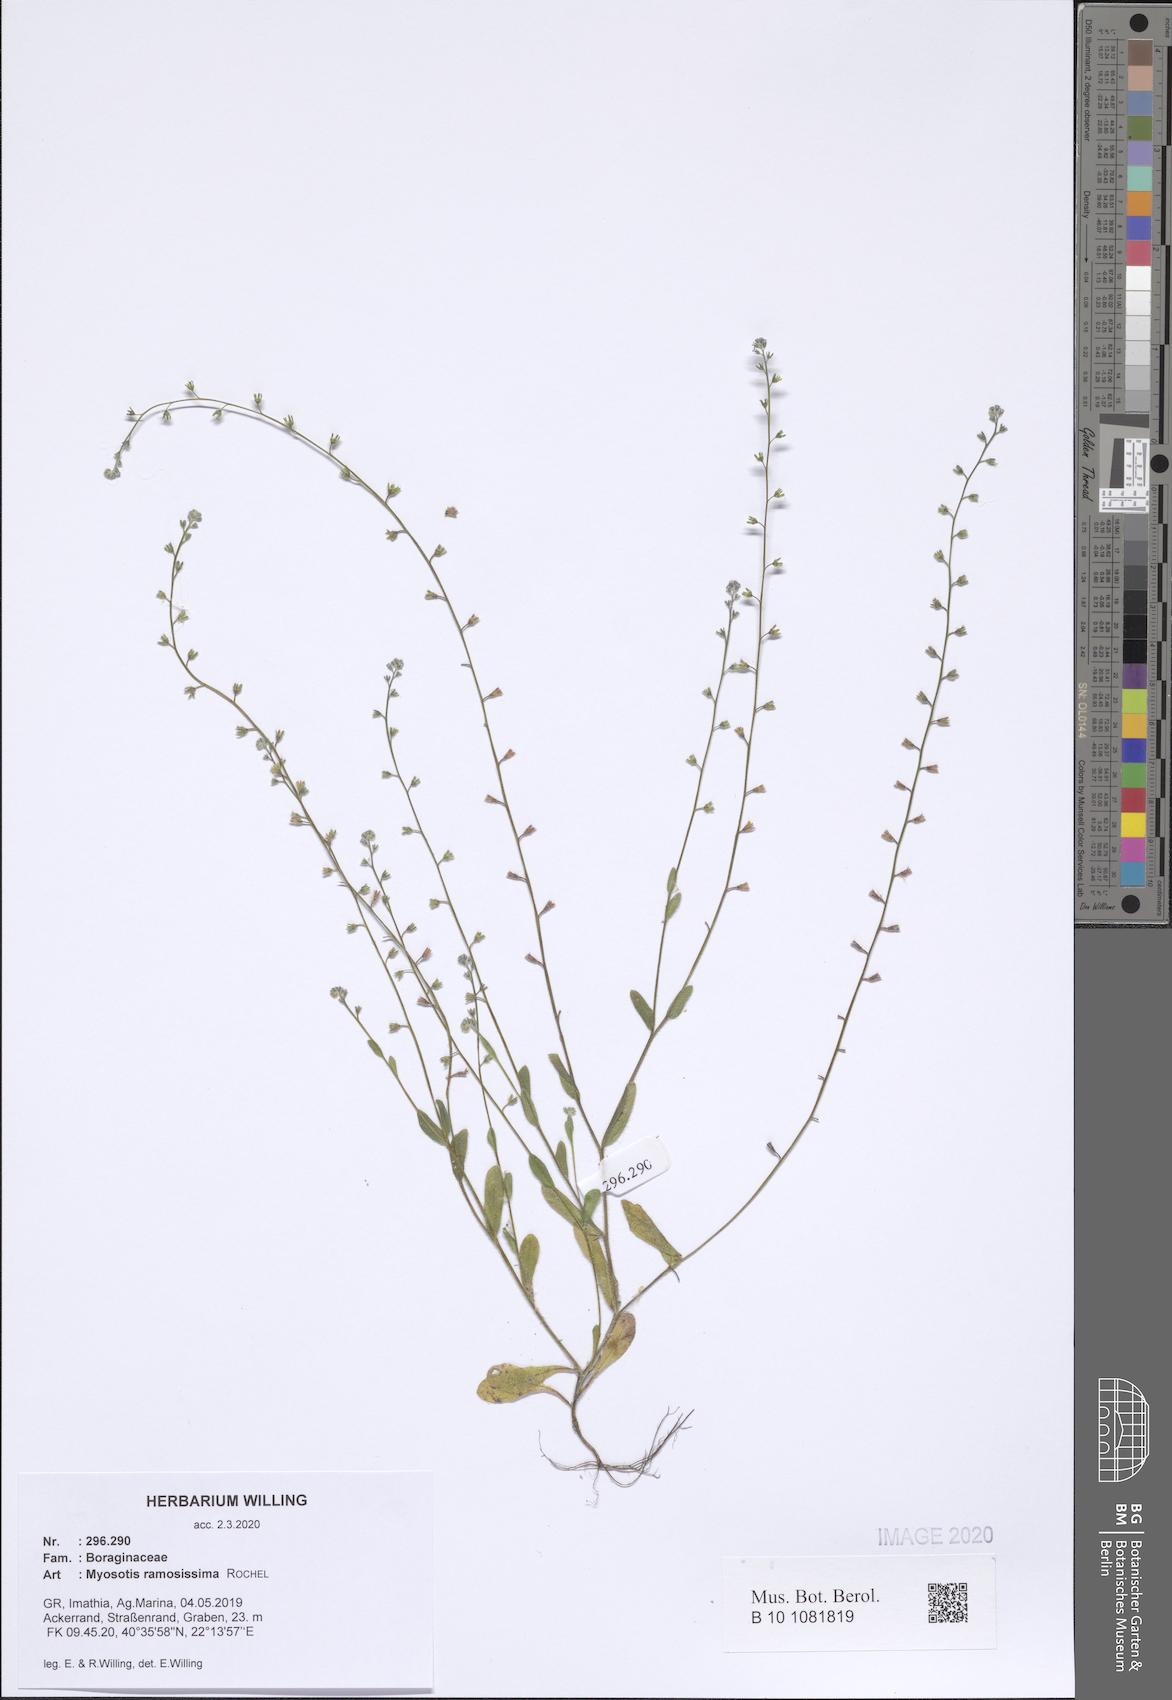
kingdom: Plantae
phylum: Tracheophyta
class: Magnoliopsida
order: Boraginales
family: Boraginaceae
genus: Myosotis
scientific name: Myosotis ramosissima
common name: Early forget-me-not
